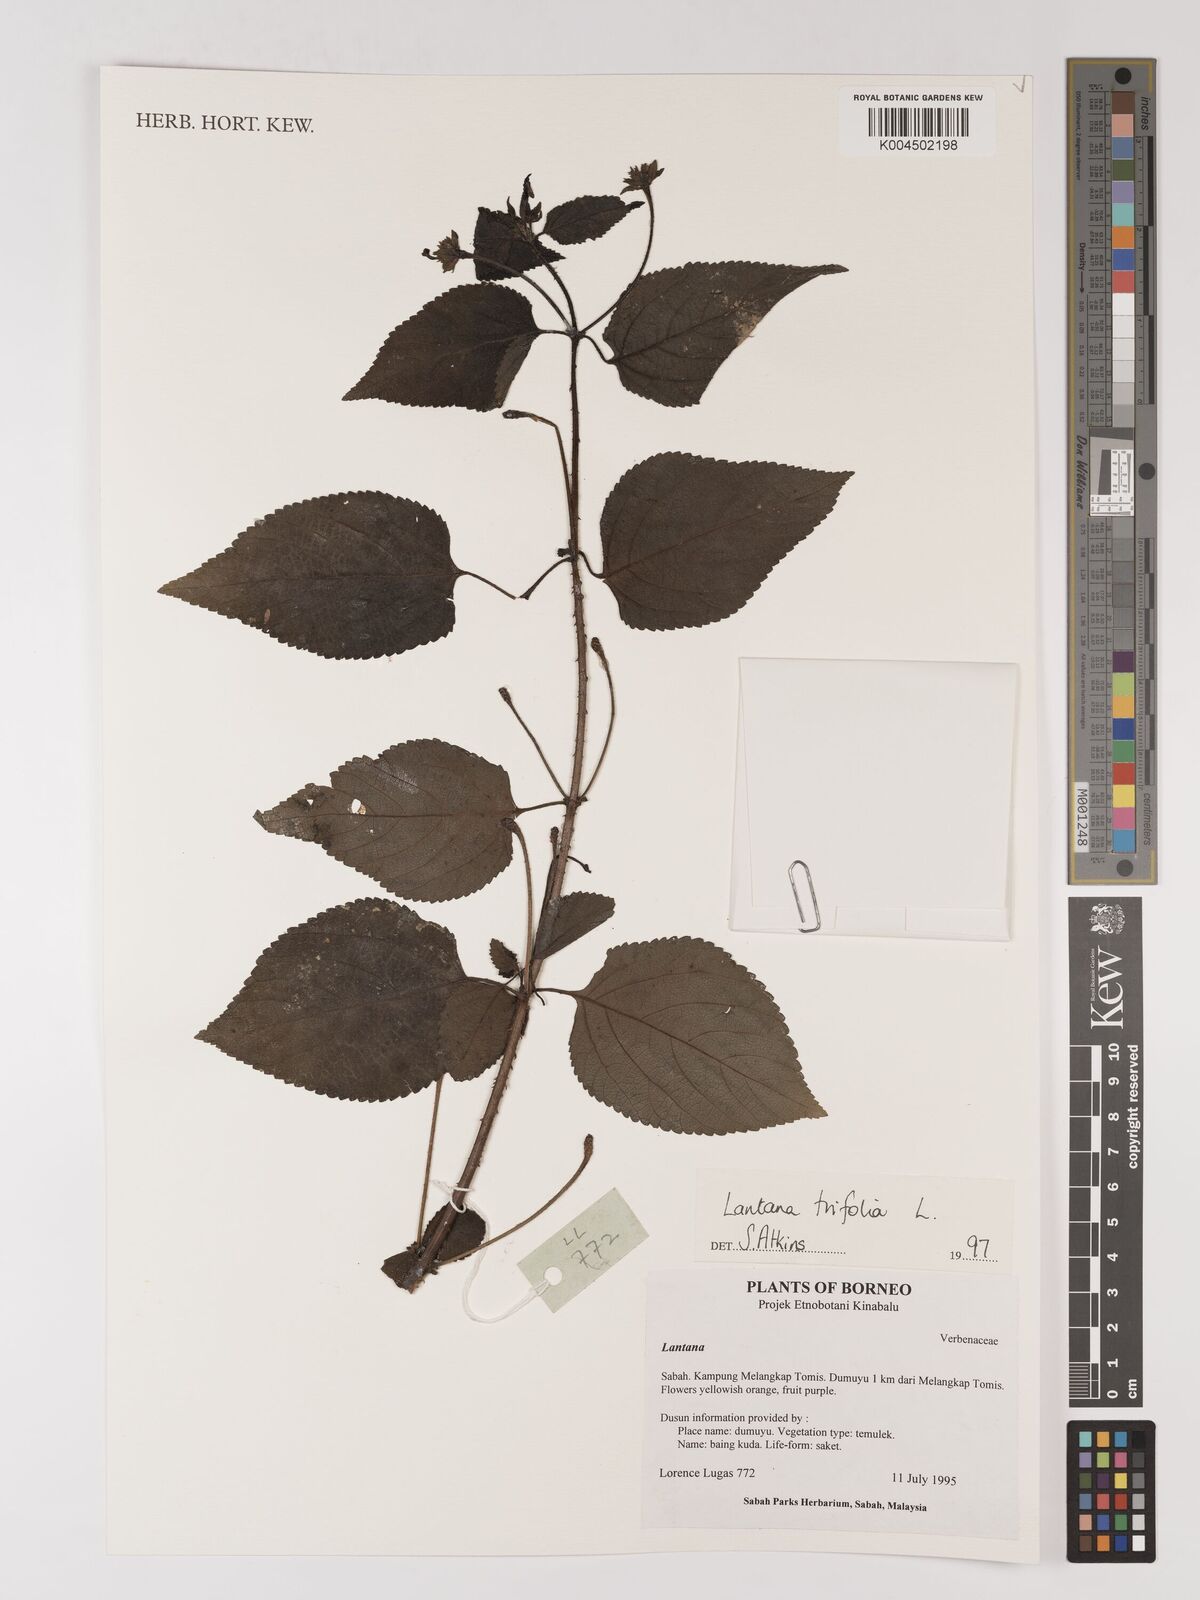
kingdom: Plantae
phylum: Tracheophyta
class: Magnoliopsida
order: Lamiales
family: Verbenaceae
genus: Lantana
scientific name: Lantana trifolia
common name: Sweet-sage
